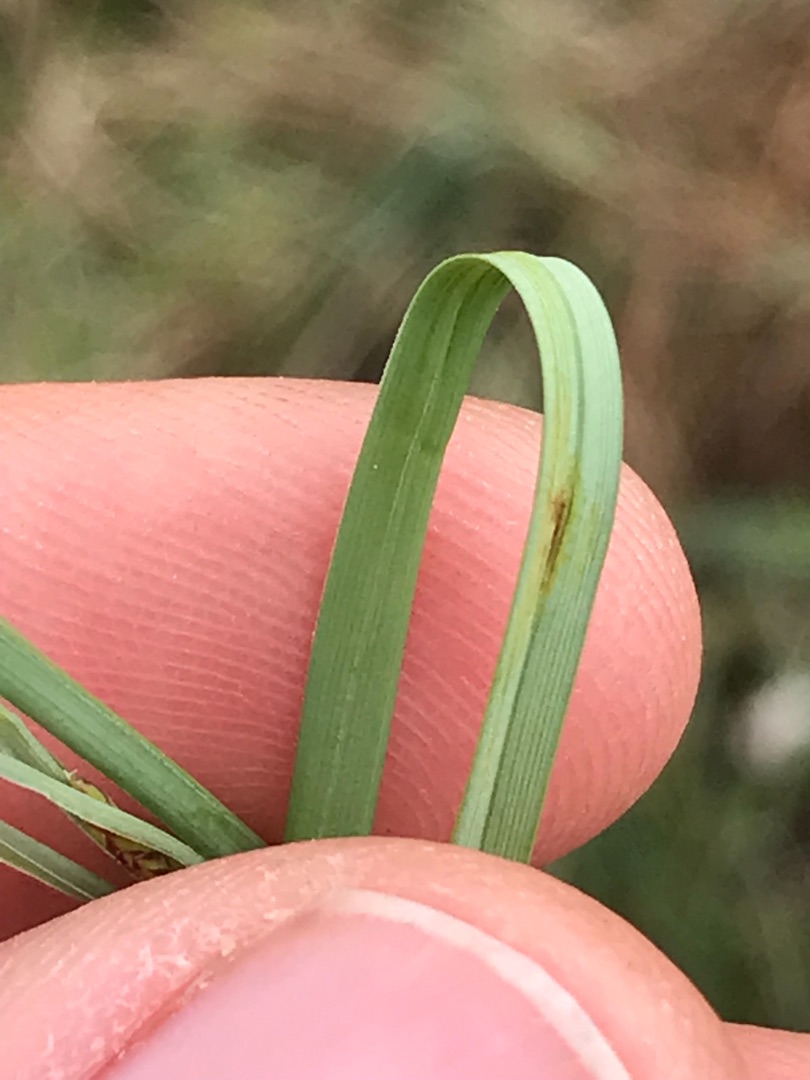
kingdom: Plantae
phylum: Tracheophyta
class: Liliopsida
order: Poales
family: Cyperaceae
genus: Carex
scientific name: Carex rostrata
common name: Næb-star
